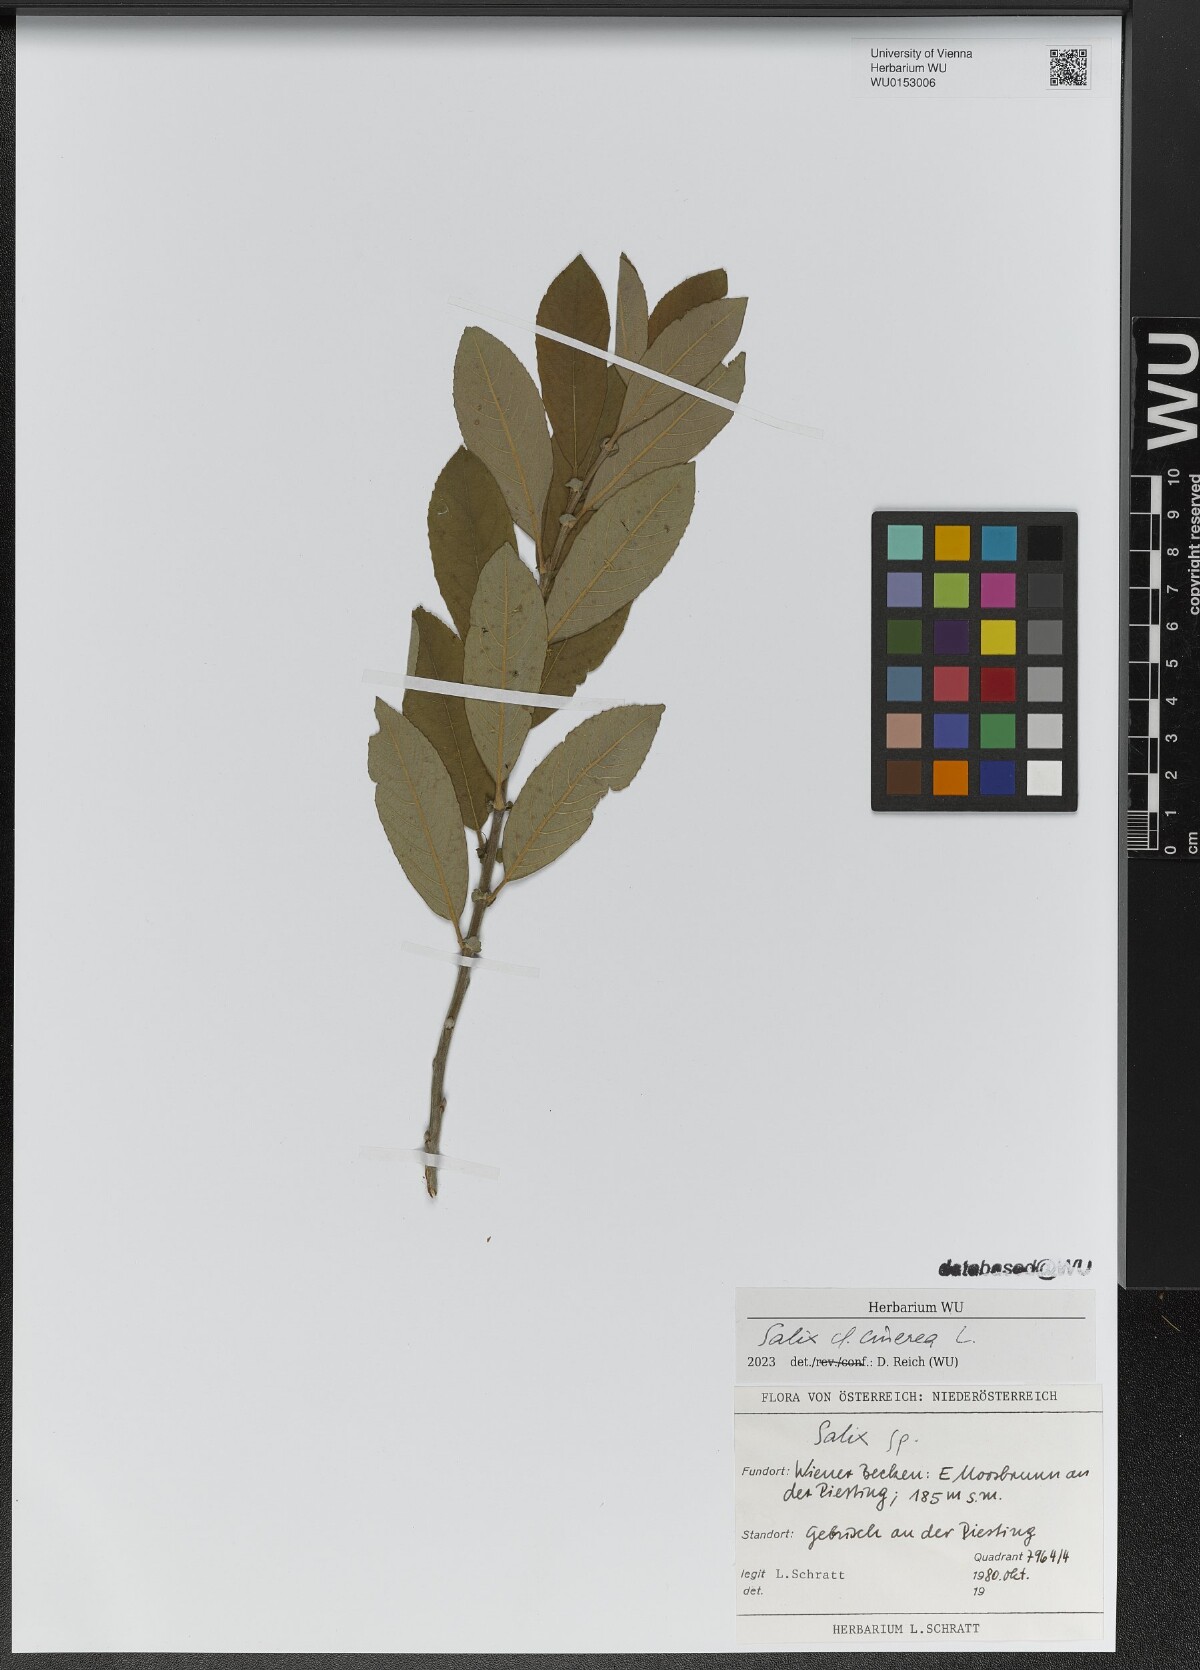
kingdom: Plantae
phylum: Tracheophyta
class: Magnoliopsida
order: Malpighiales
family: Salicaceae
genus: Salix
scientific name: Salix cinerea
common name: Common sallow
